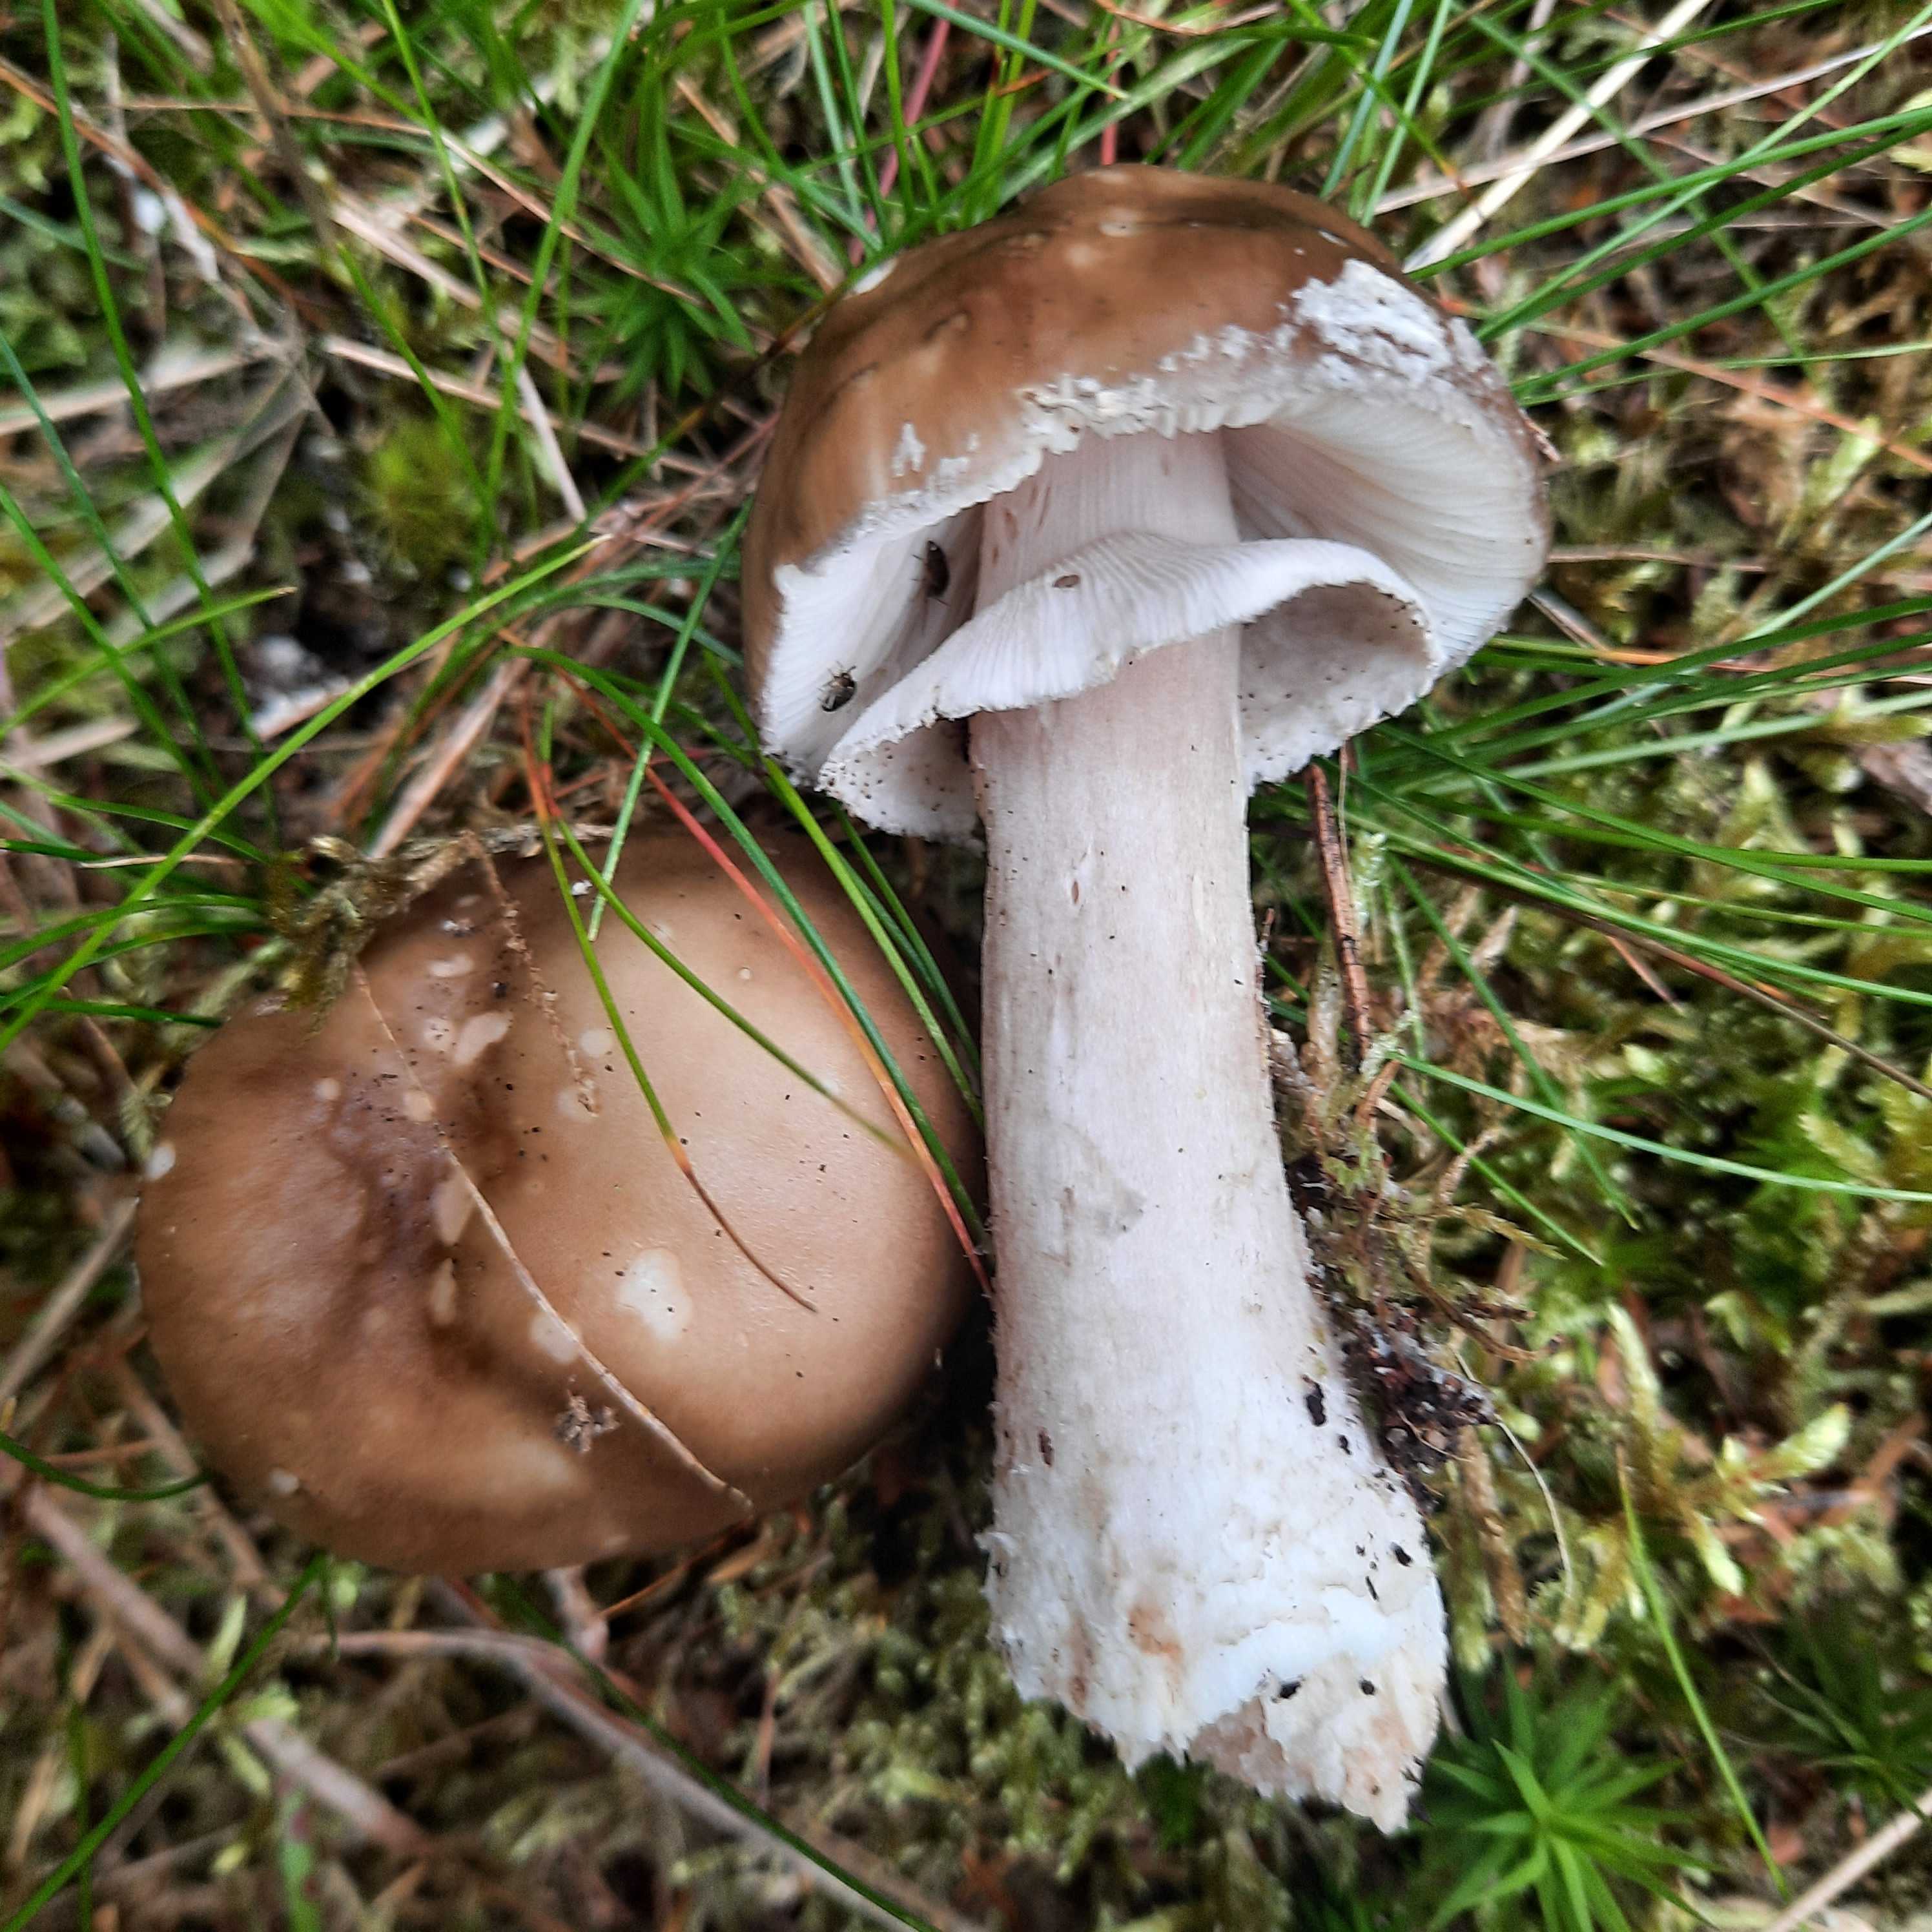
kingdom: Fungi
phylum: Basidiomycota
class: Agaricomycetes
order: Agaricales
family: Amanitaceae
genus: Amanita
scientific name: Amanita
